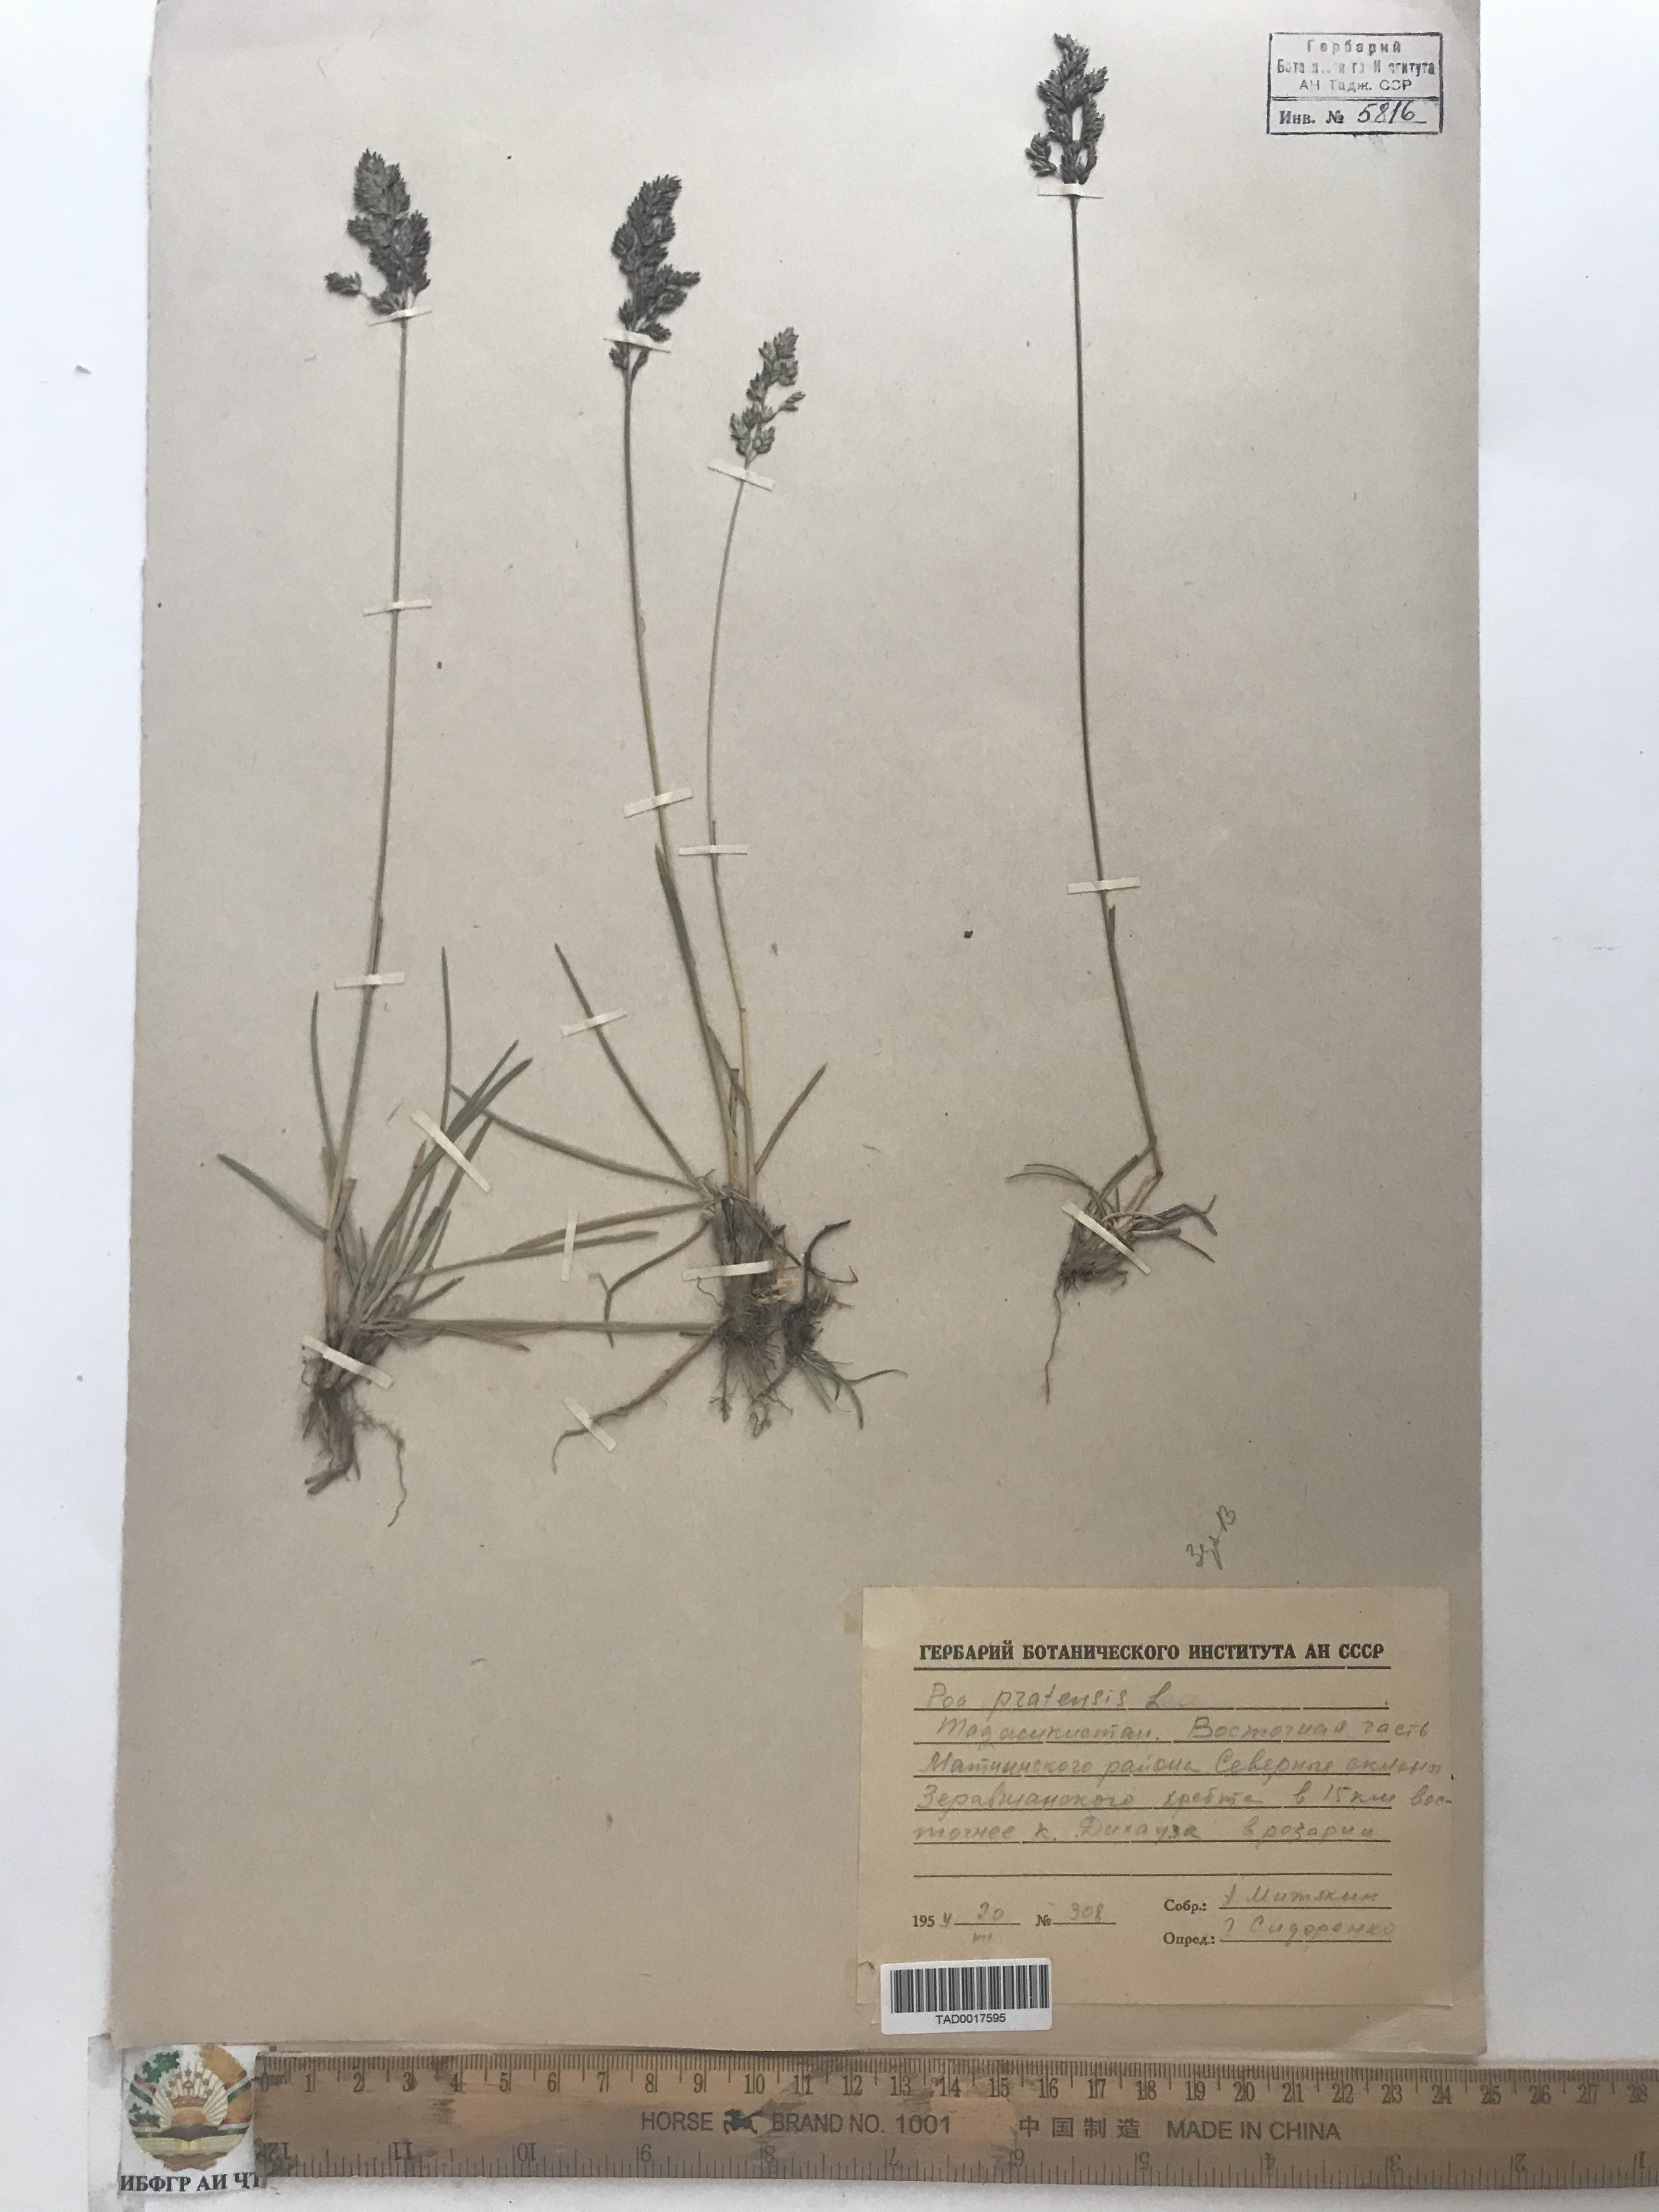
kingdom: Plantae
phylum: Tracheophyta
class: Liliopsida
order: Poales
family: Poaceae
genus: Poa
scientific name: Poa pratensis
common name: Kentucky bluegrass
